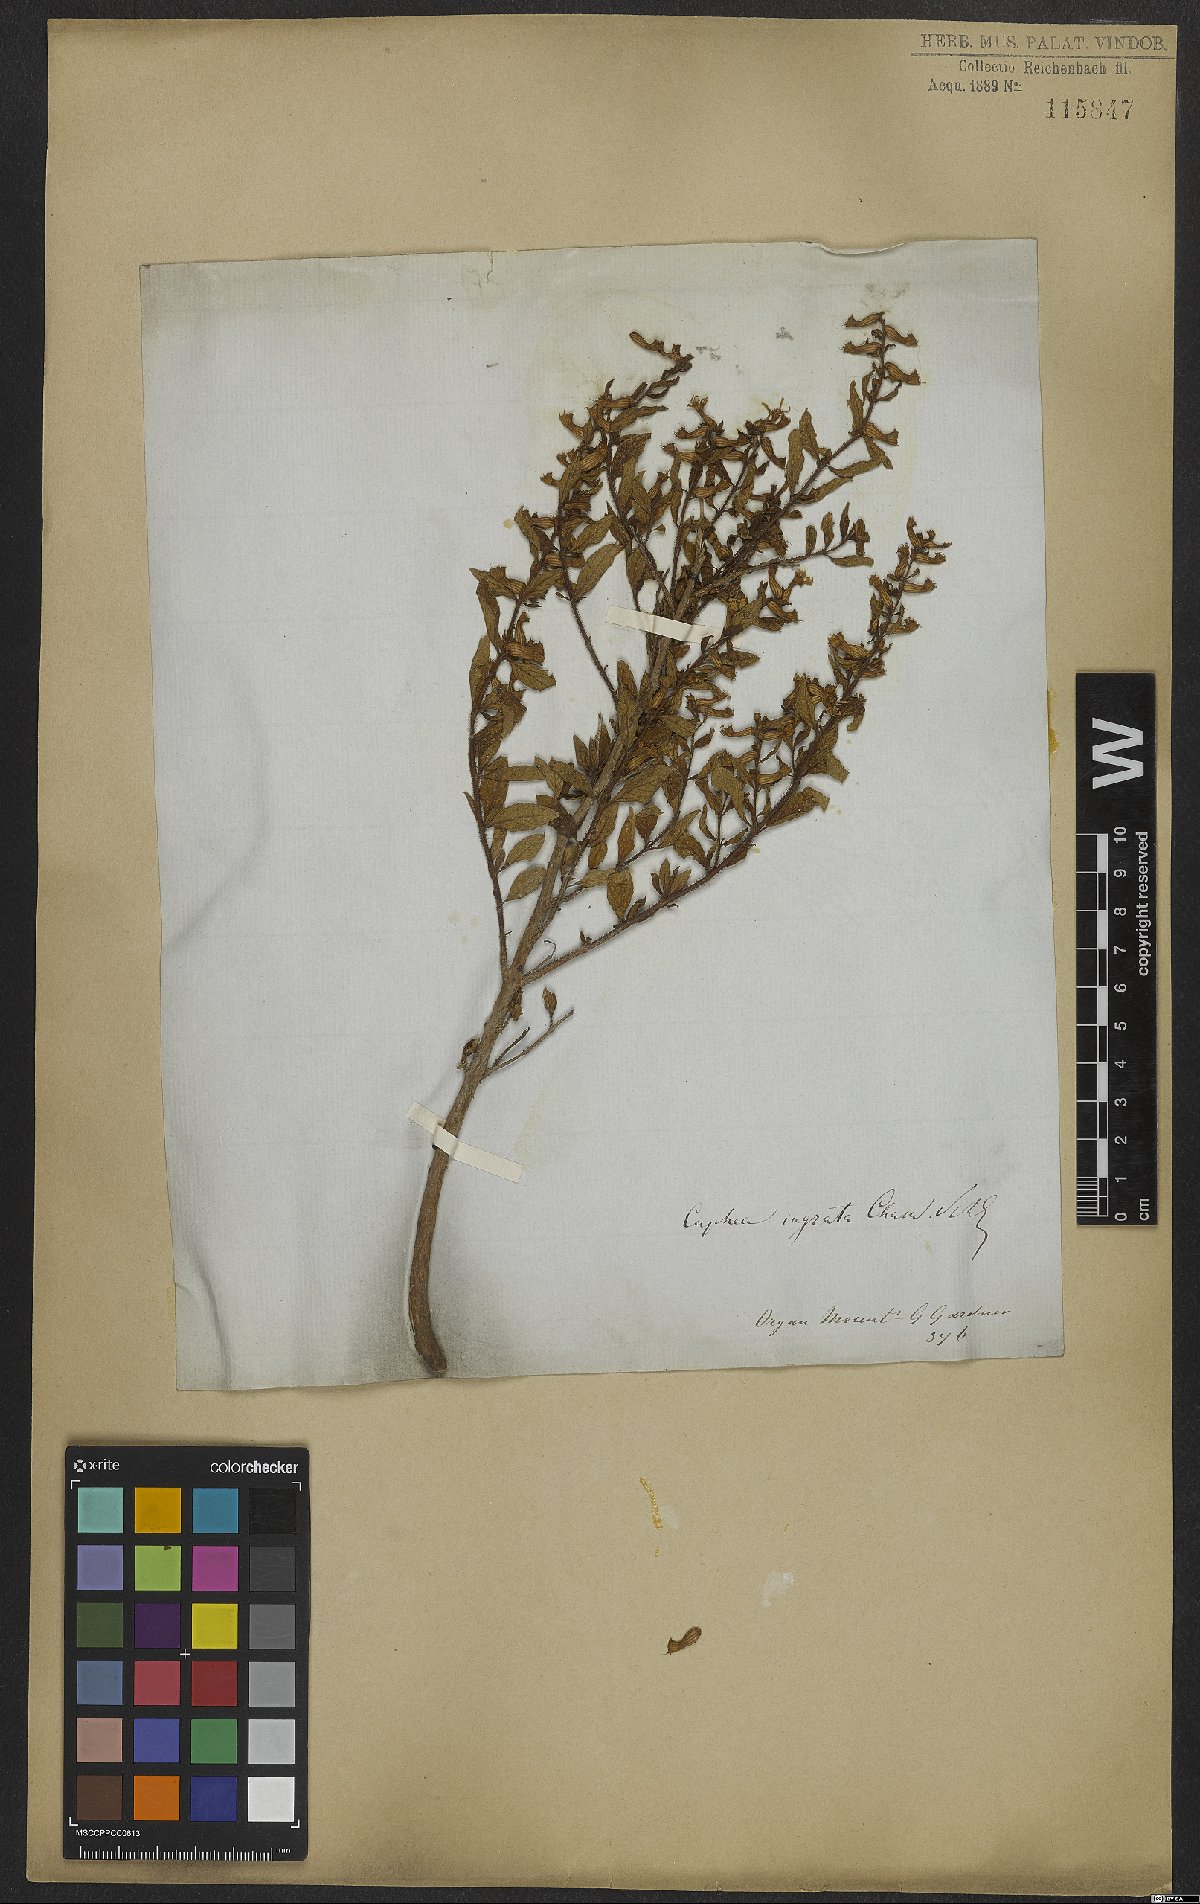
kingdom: Plantae
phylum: Tracheophyta
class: Magnoliopsida
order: Myrtales
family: Lythraceae
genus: Cuphea
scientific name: Cuphea ingrata
